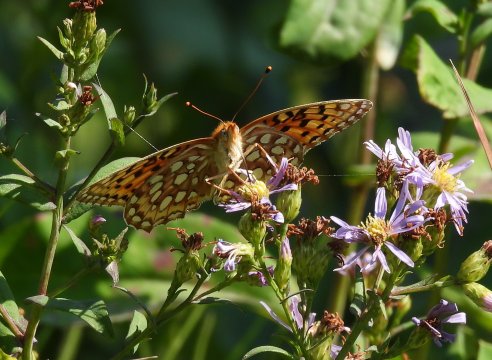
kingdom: Animalia
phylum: Arthropoda
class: Insecta
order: Lepidoptera
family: Nymphalidae
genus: Speyeria
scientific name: Speyeria callippe
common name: Callippe Fritillary
